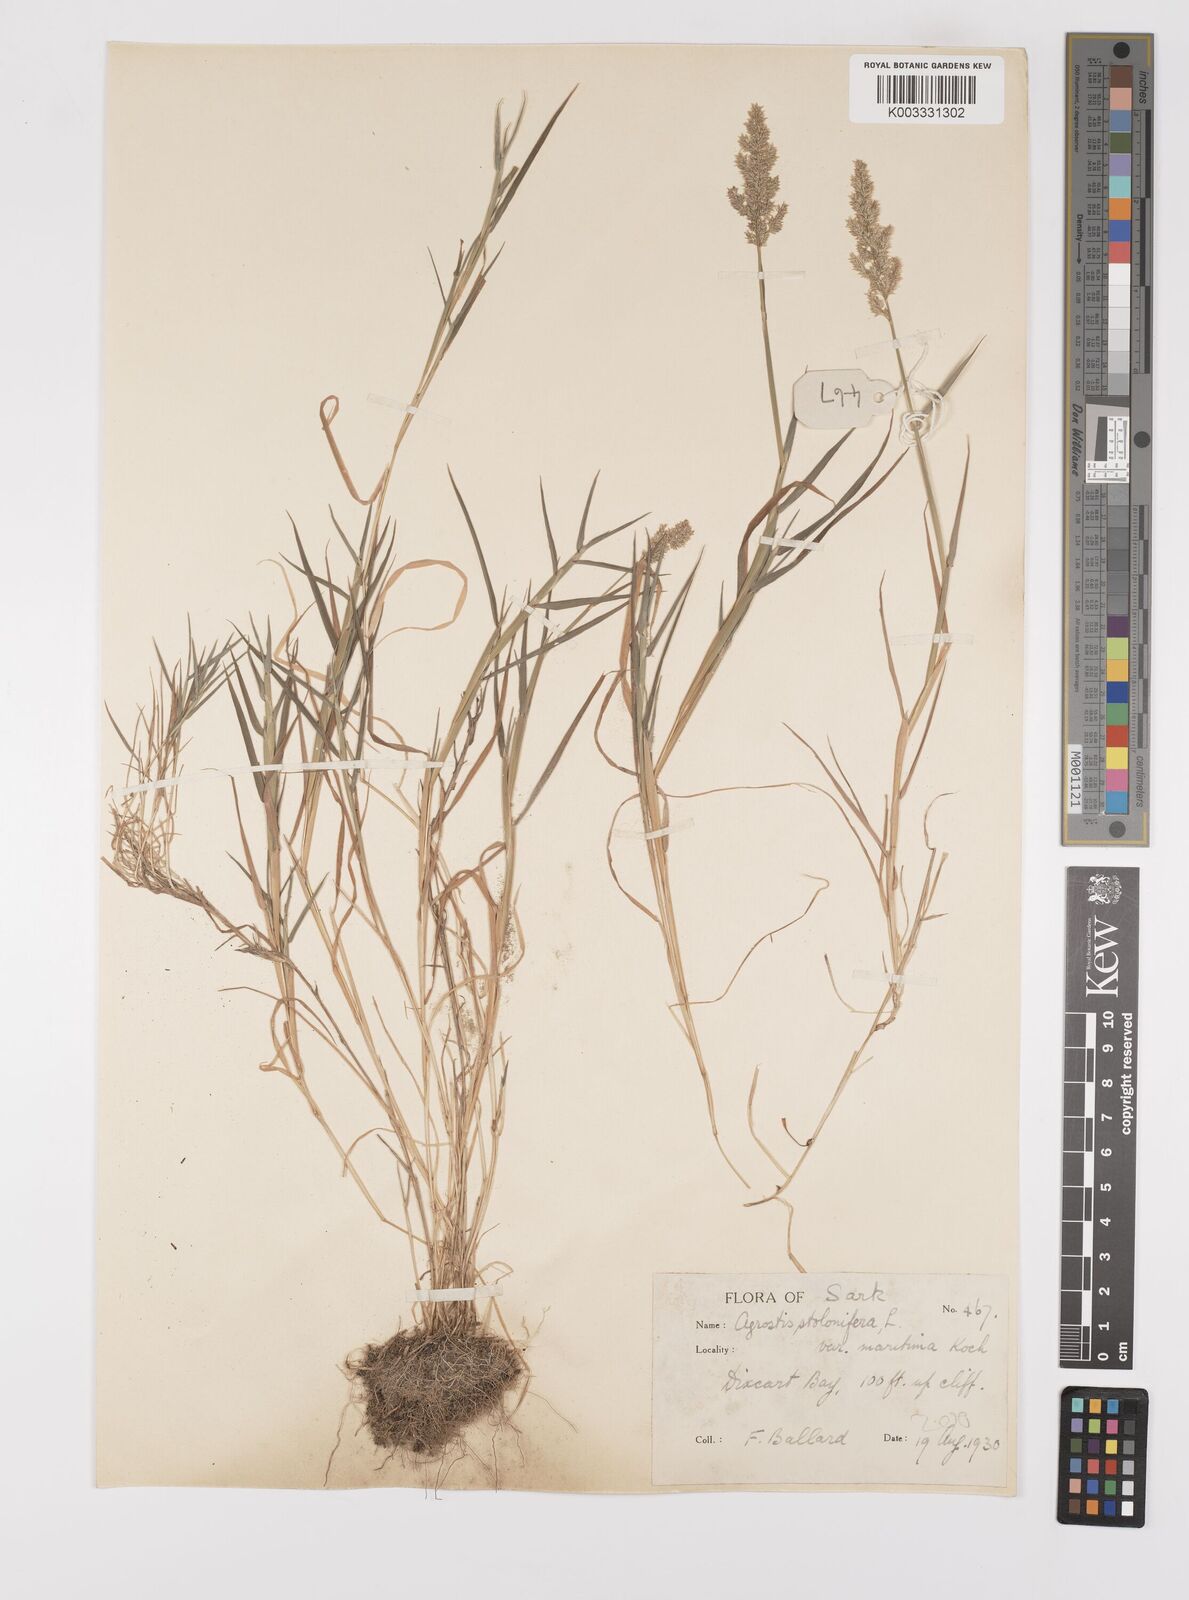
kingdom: Plantae
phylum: Tracheophyta
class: Liliopsida
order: Poales
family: Poaceae
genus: Polypogon
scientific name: Polypogon viridis
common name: Water bent
